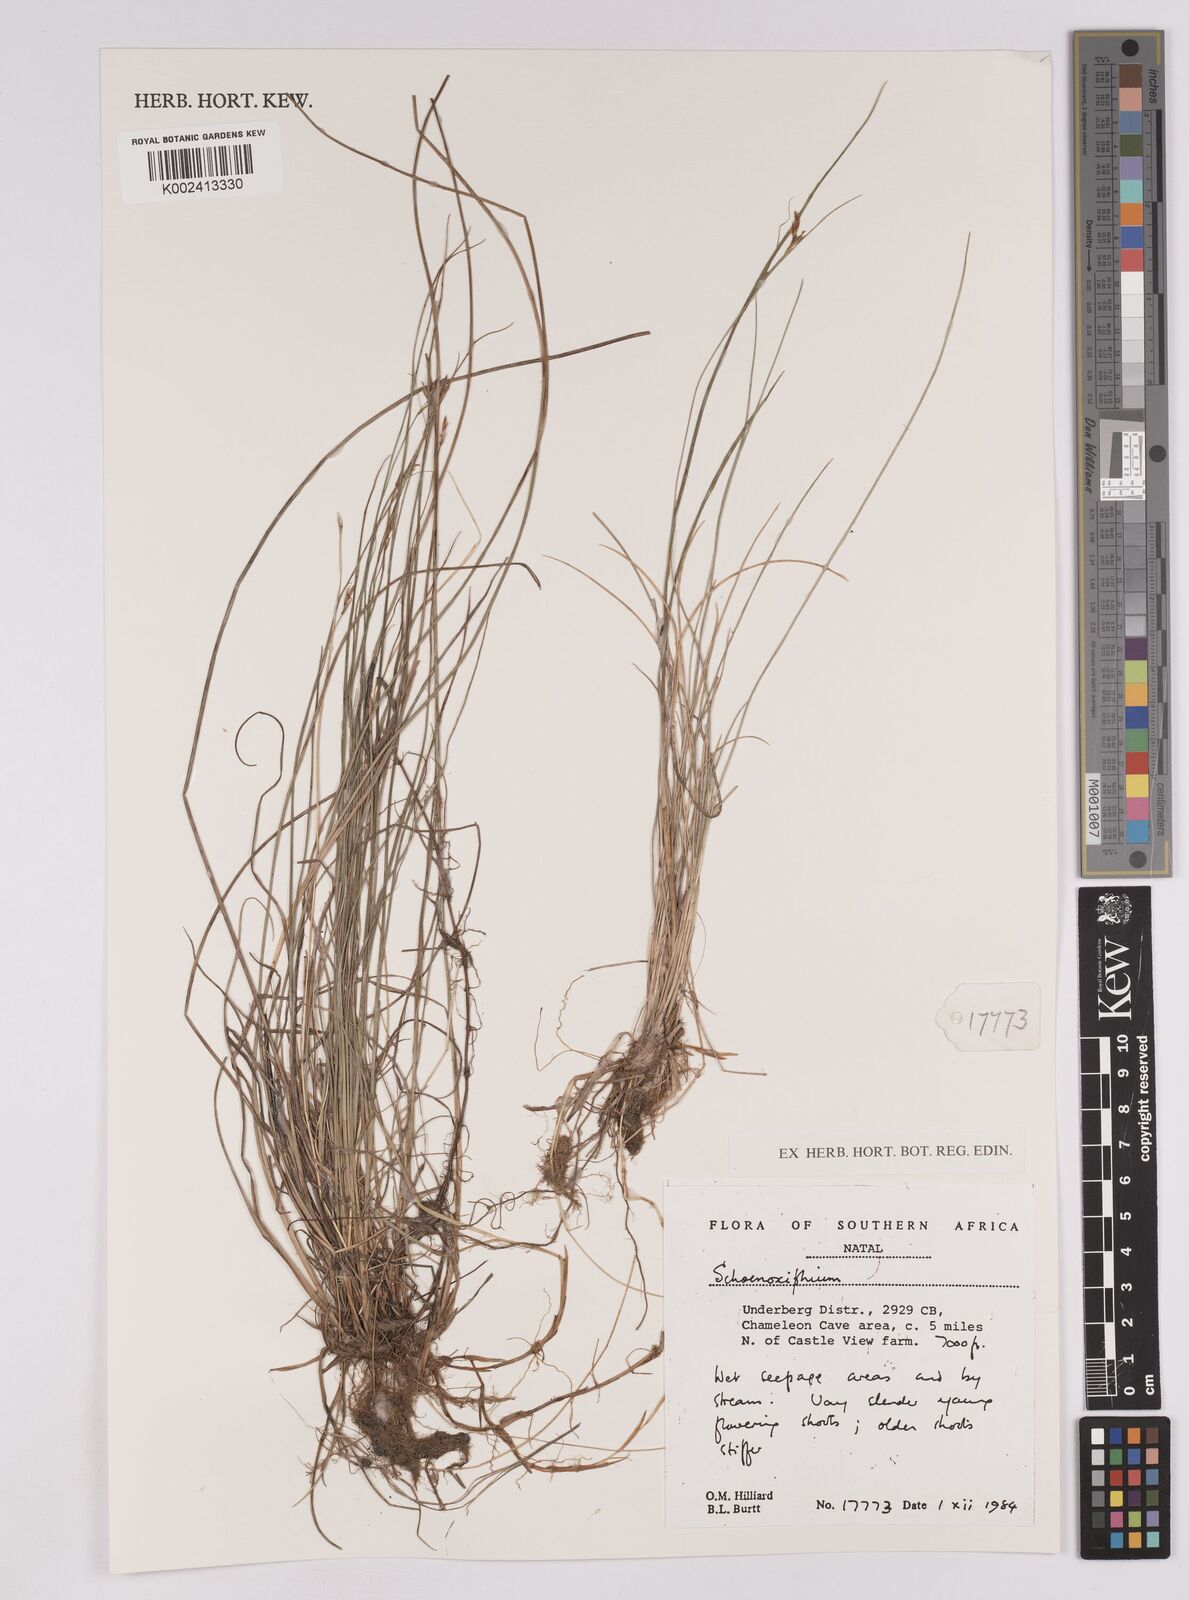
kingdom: Plantae
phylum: Tracheophyta
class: Liliopsida
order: Poales
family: Cyperaceae
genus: Carex
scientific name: Carex
